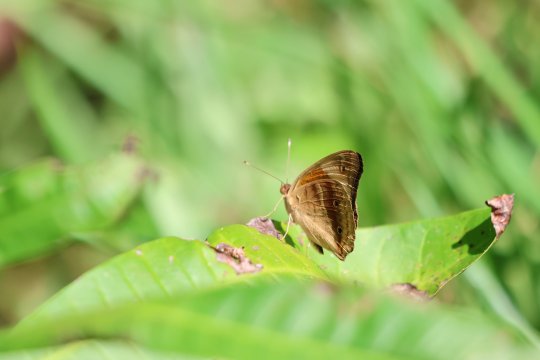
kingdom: Animalia
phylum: Arthropoda
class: Insecta
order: Lepidoptera
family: Nymphalidae
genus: Junonia
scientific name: Junonia evarete
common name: Mangrove Buckeye
